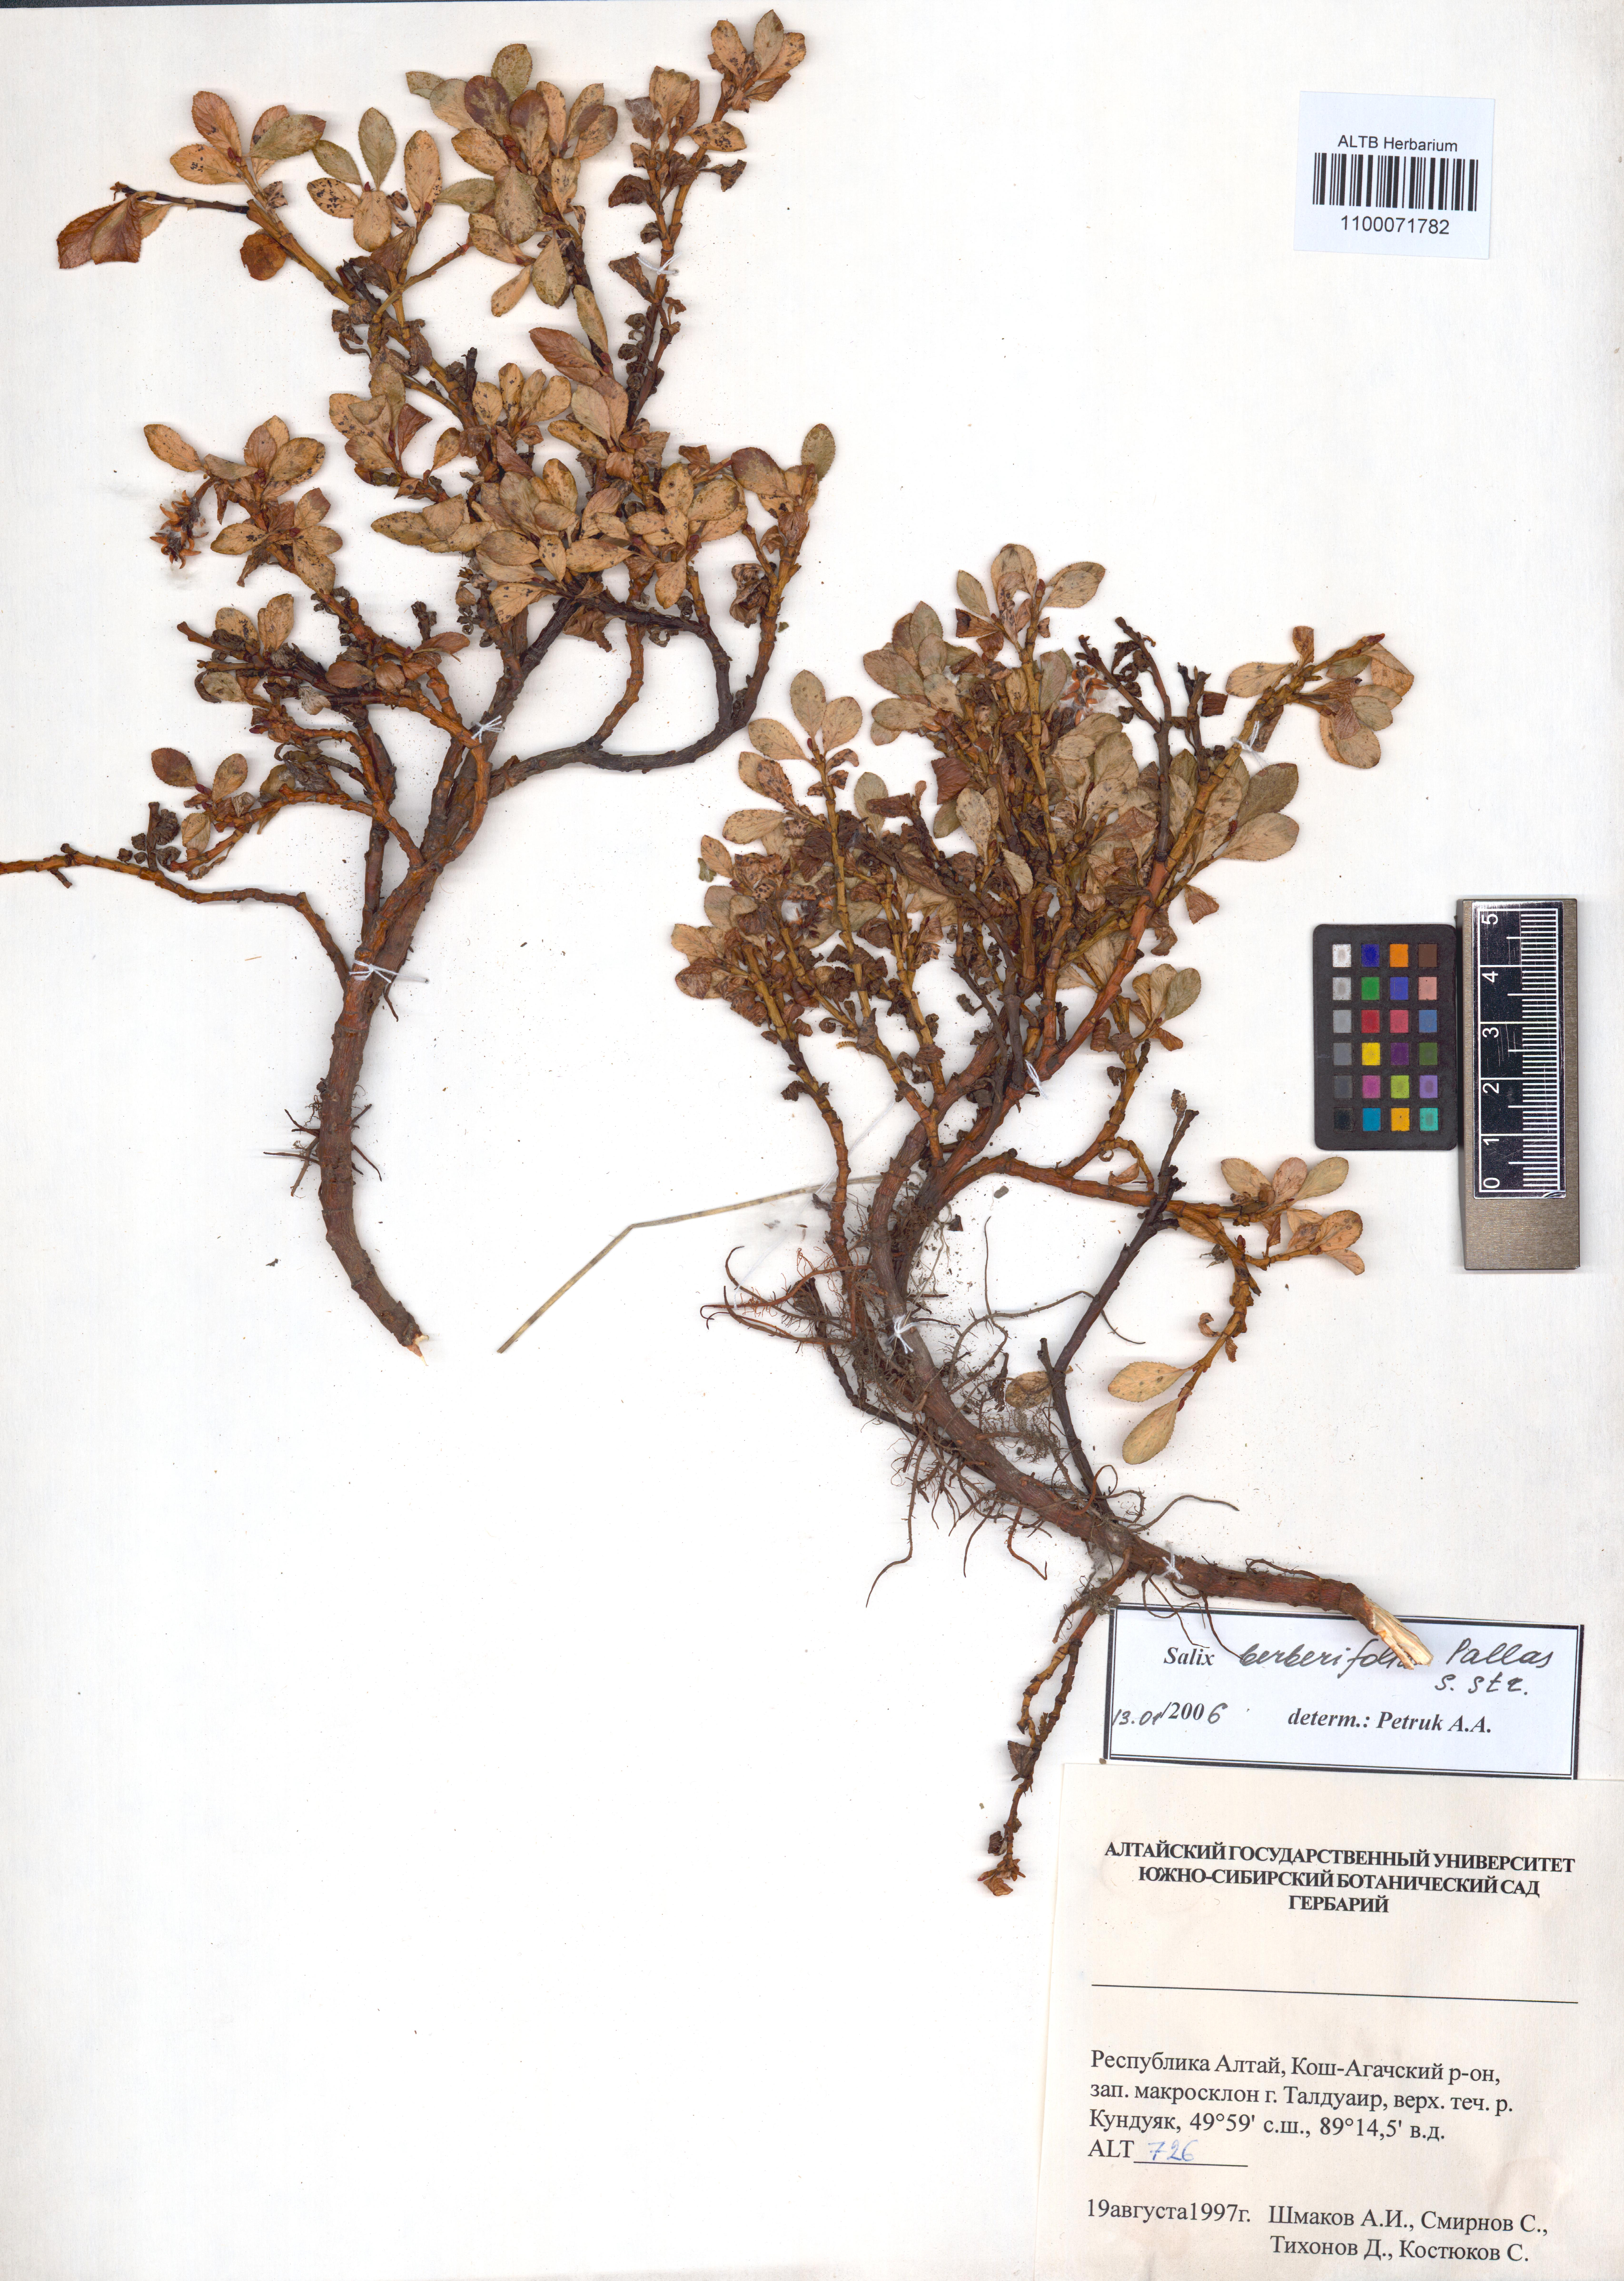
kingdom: Plantae
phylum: Tracheophyta
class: Magnoliopsida
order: Malpighiales
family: Salicaceae
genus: Salix
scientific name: Salix berberifolia
